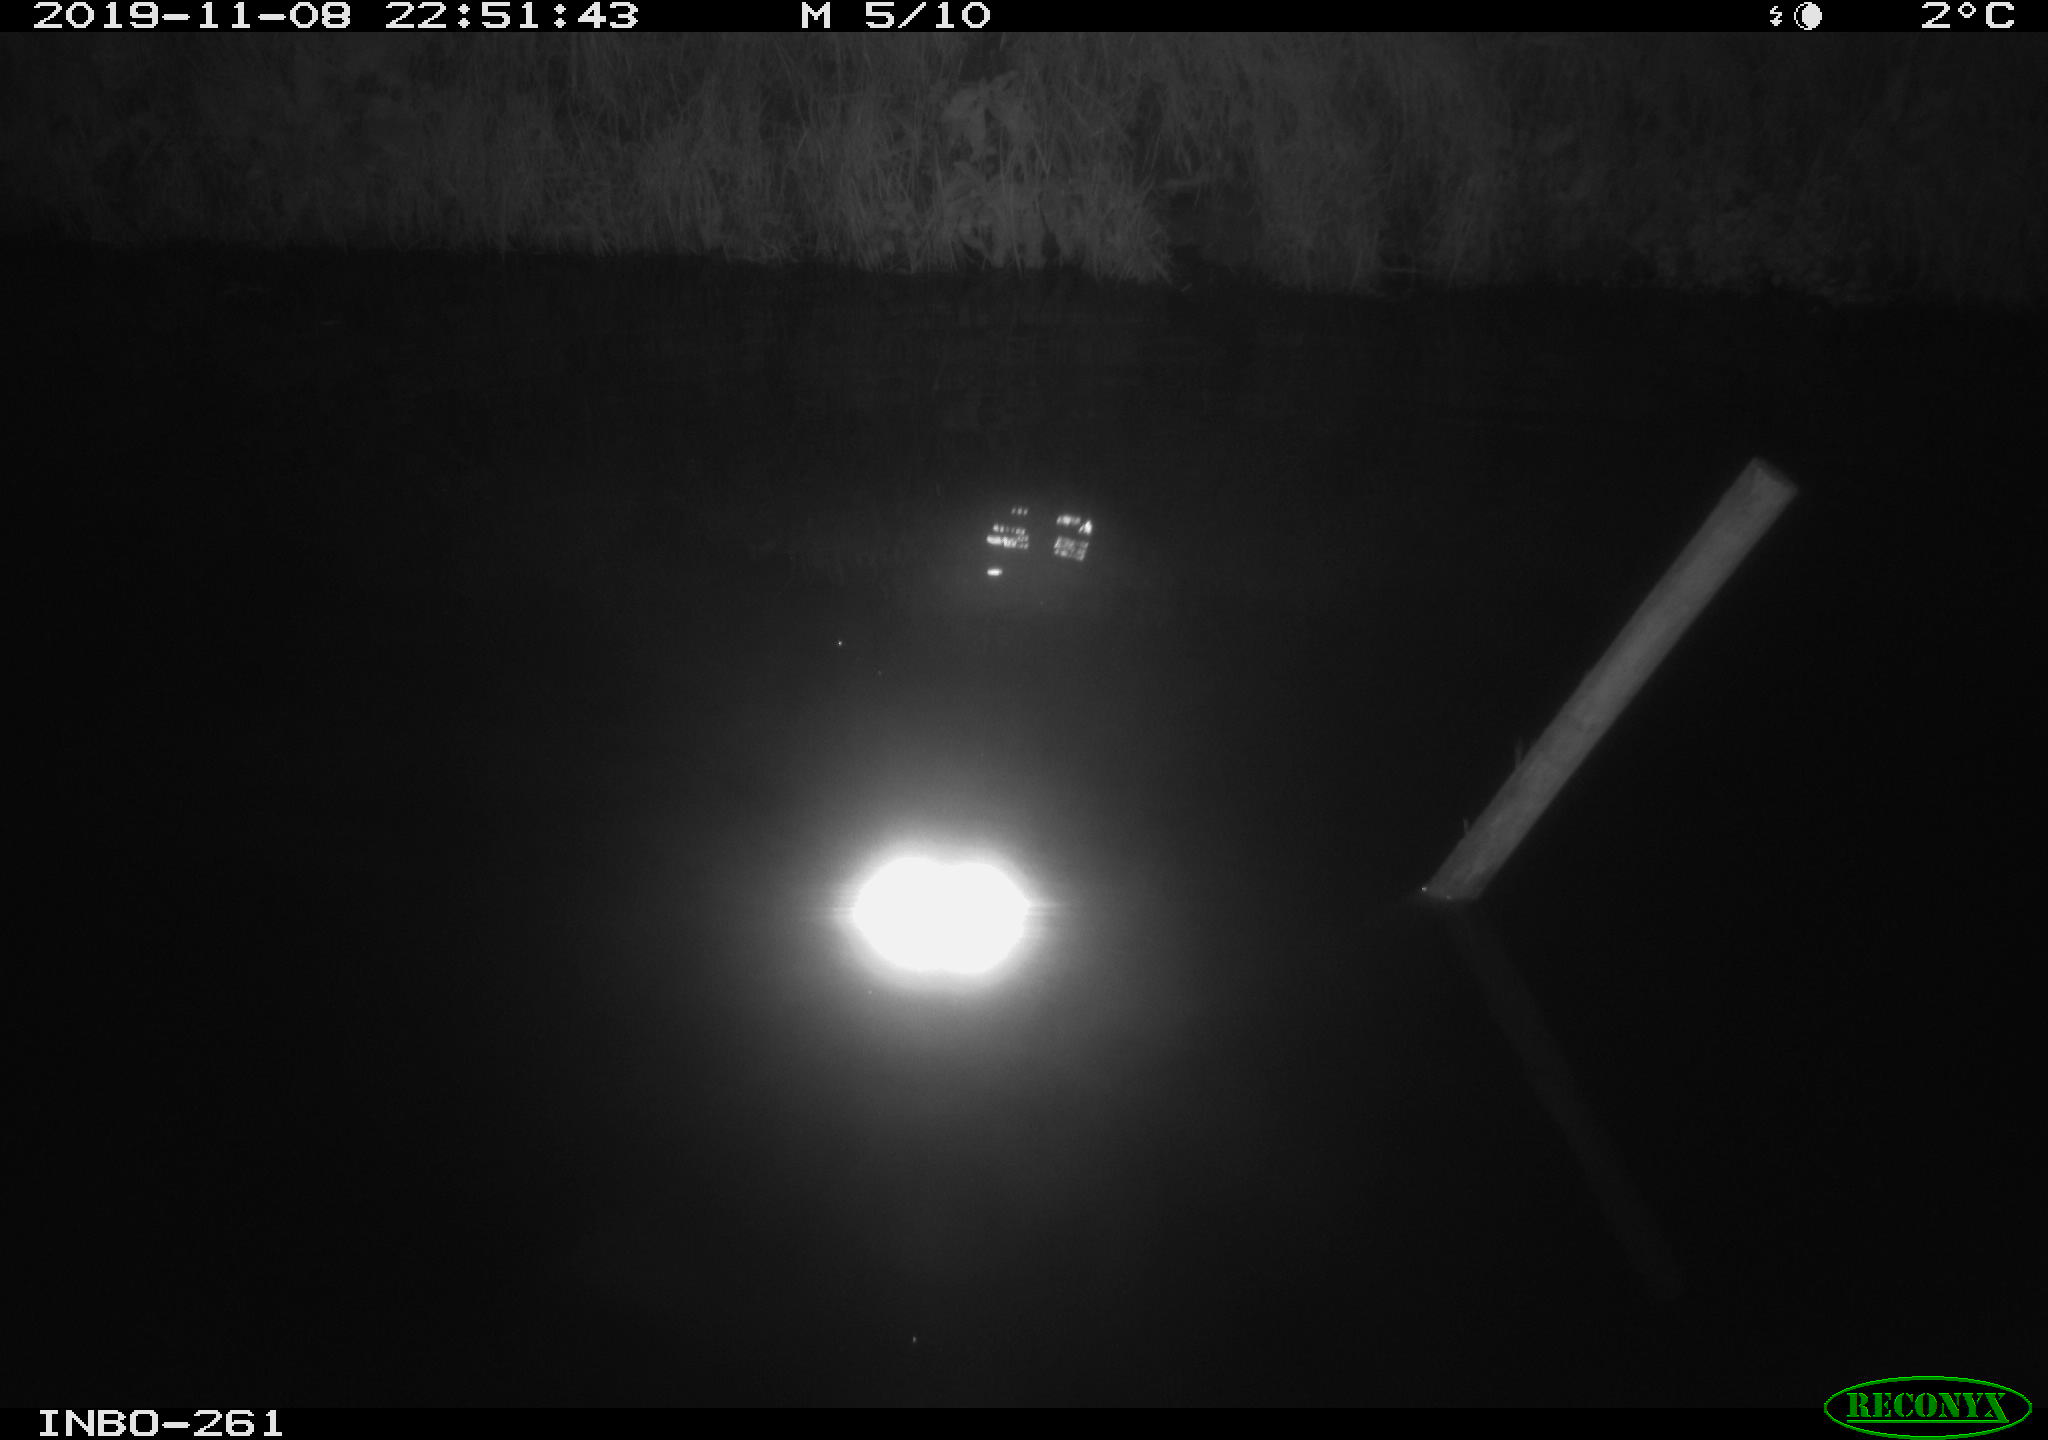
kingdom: Animalia
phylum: Chordata
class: Aves
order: Anseriformes
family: Anatidae
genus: Anas
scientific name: Anas platyrhynchos
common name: Mallard
